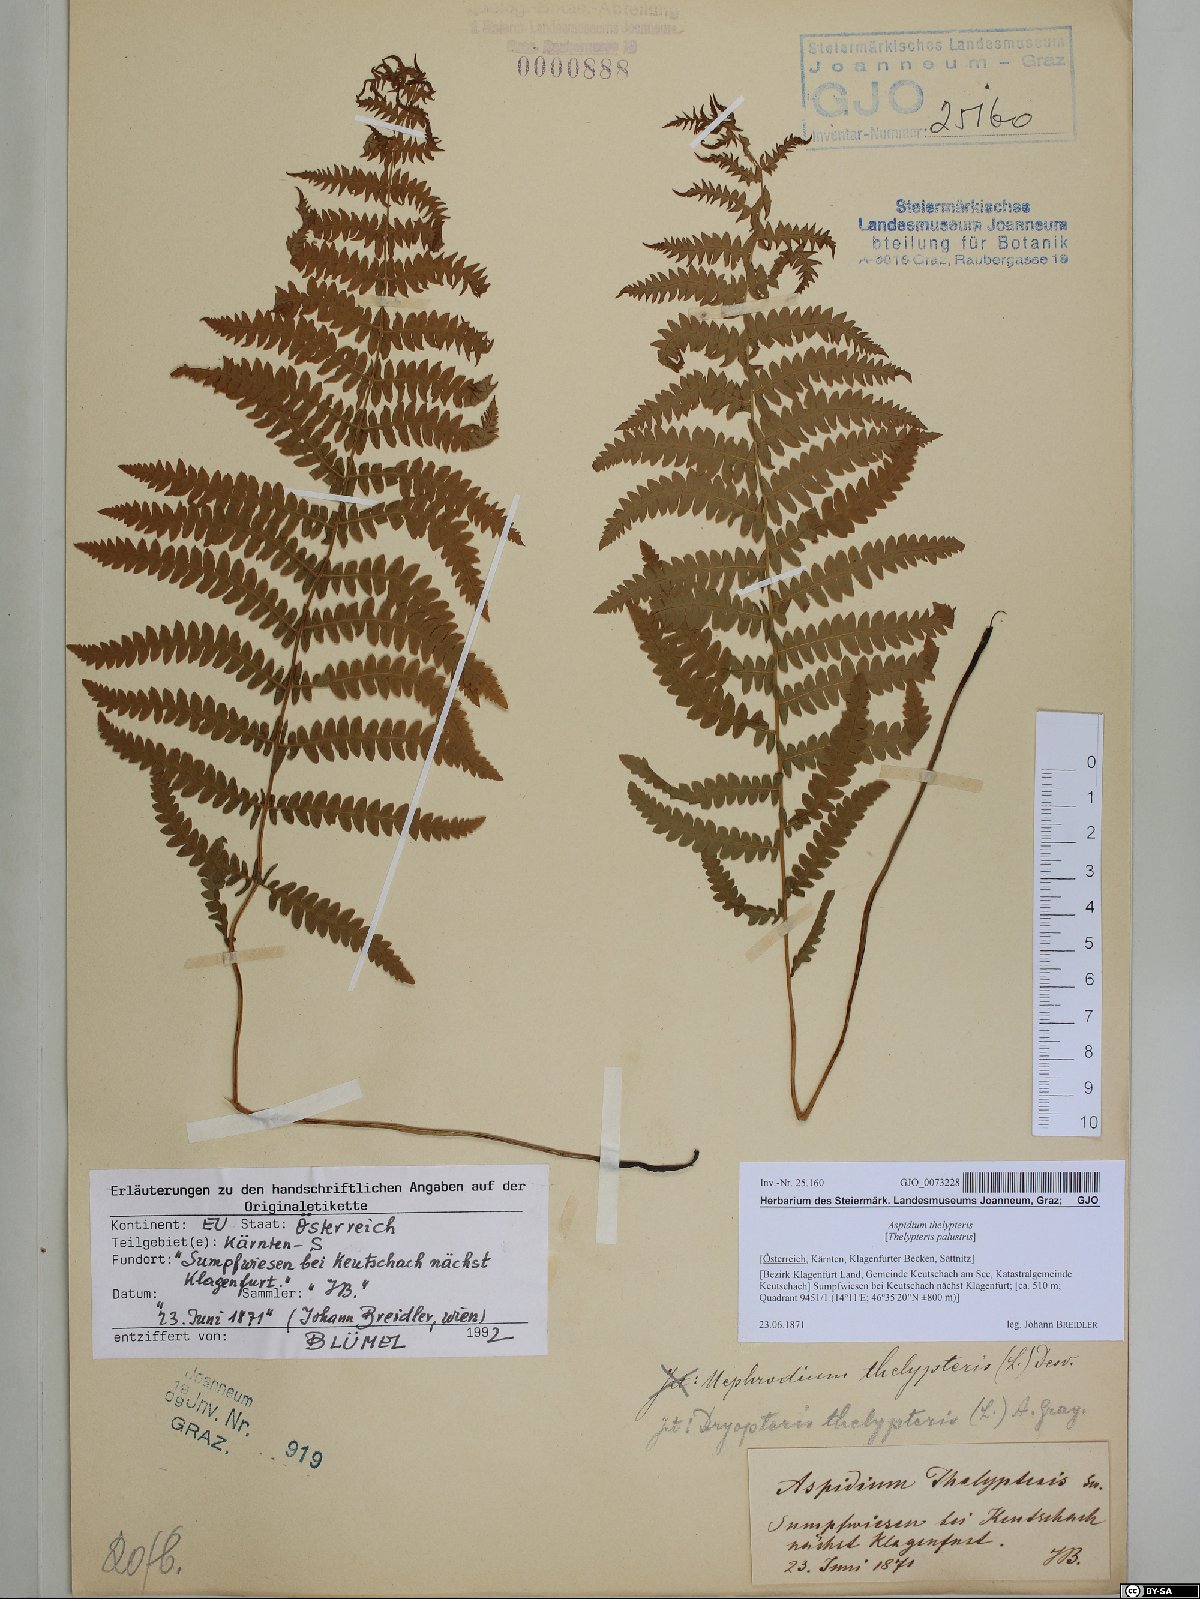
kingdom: Plantae
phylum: Tracheophyta
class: Polypodiopsida
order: Polypodiales
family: Thelypteridaceae
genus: Thelypteris
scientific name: Thelypteris palustris
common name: Marsh fern
